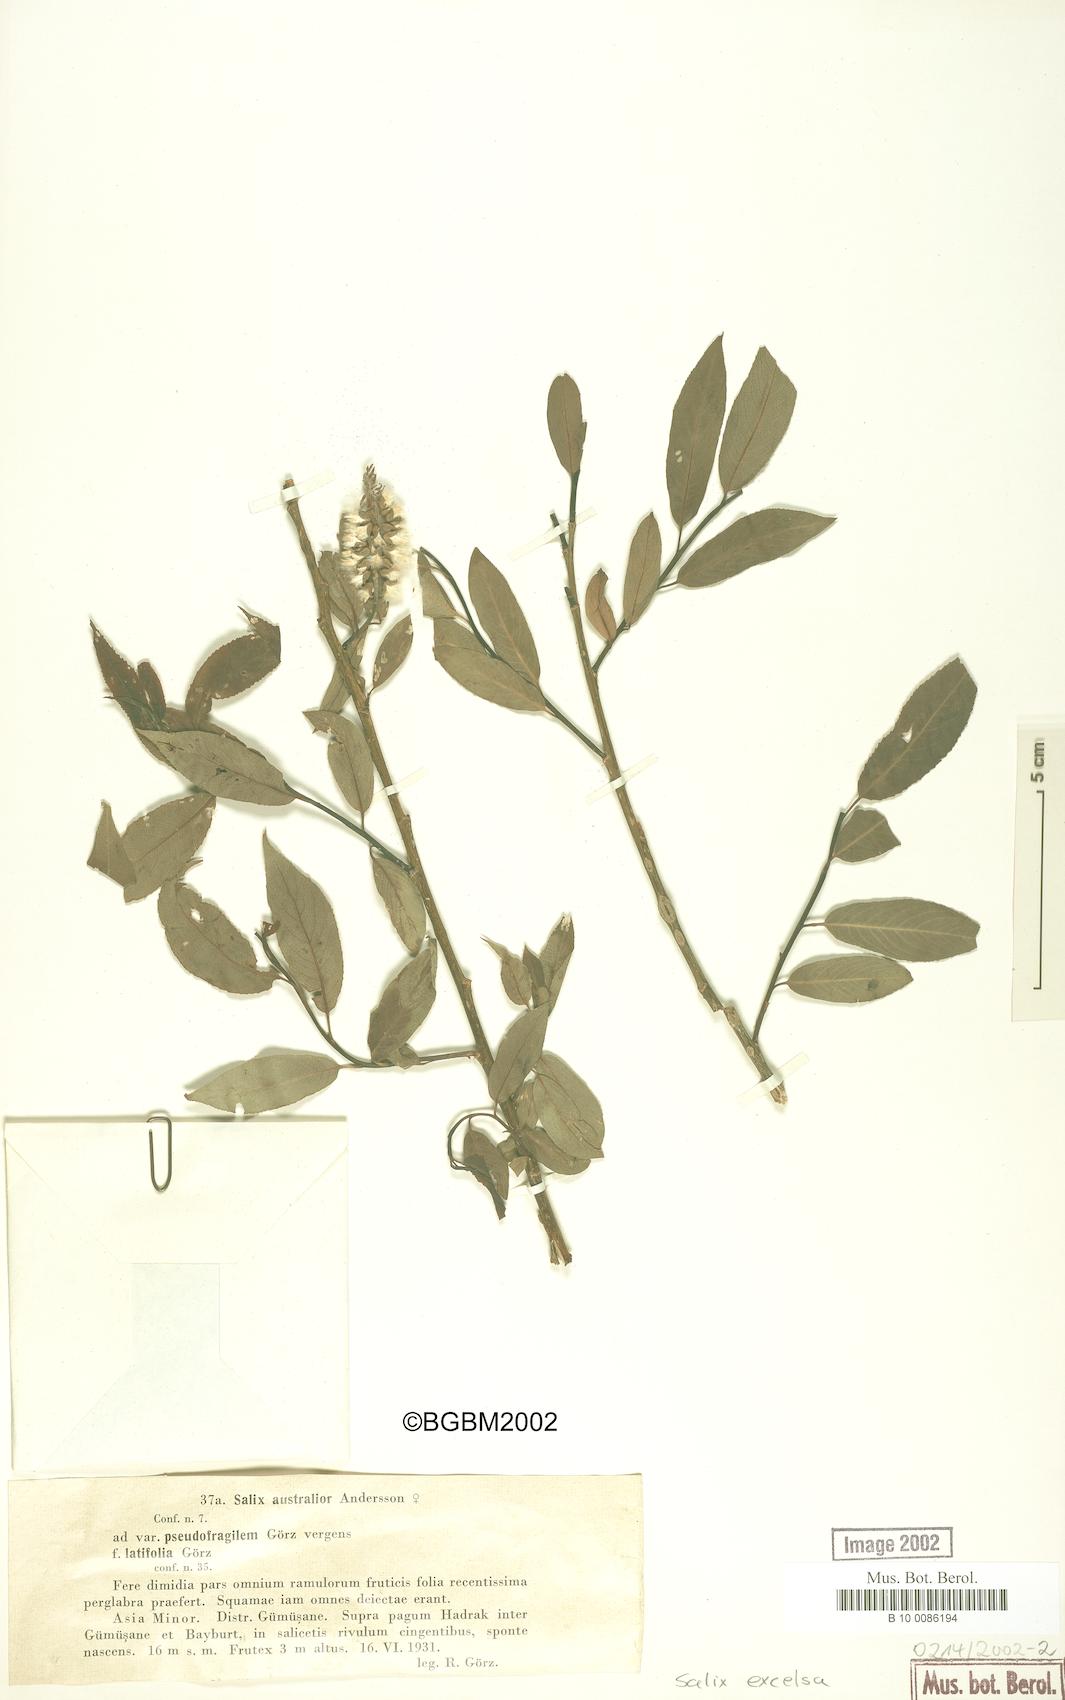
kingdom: Plantae
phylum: Tracheophyta
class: Magnoliopsida
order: Malpighiales
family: Salicaceae
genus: Salix
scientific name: Salix excelsa
